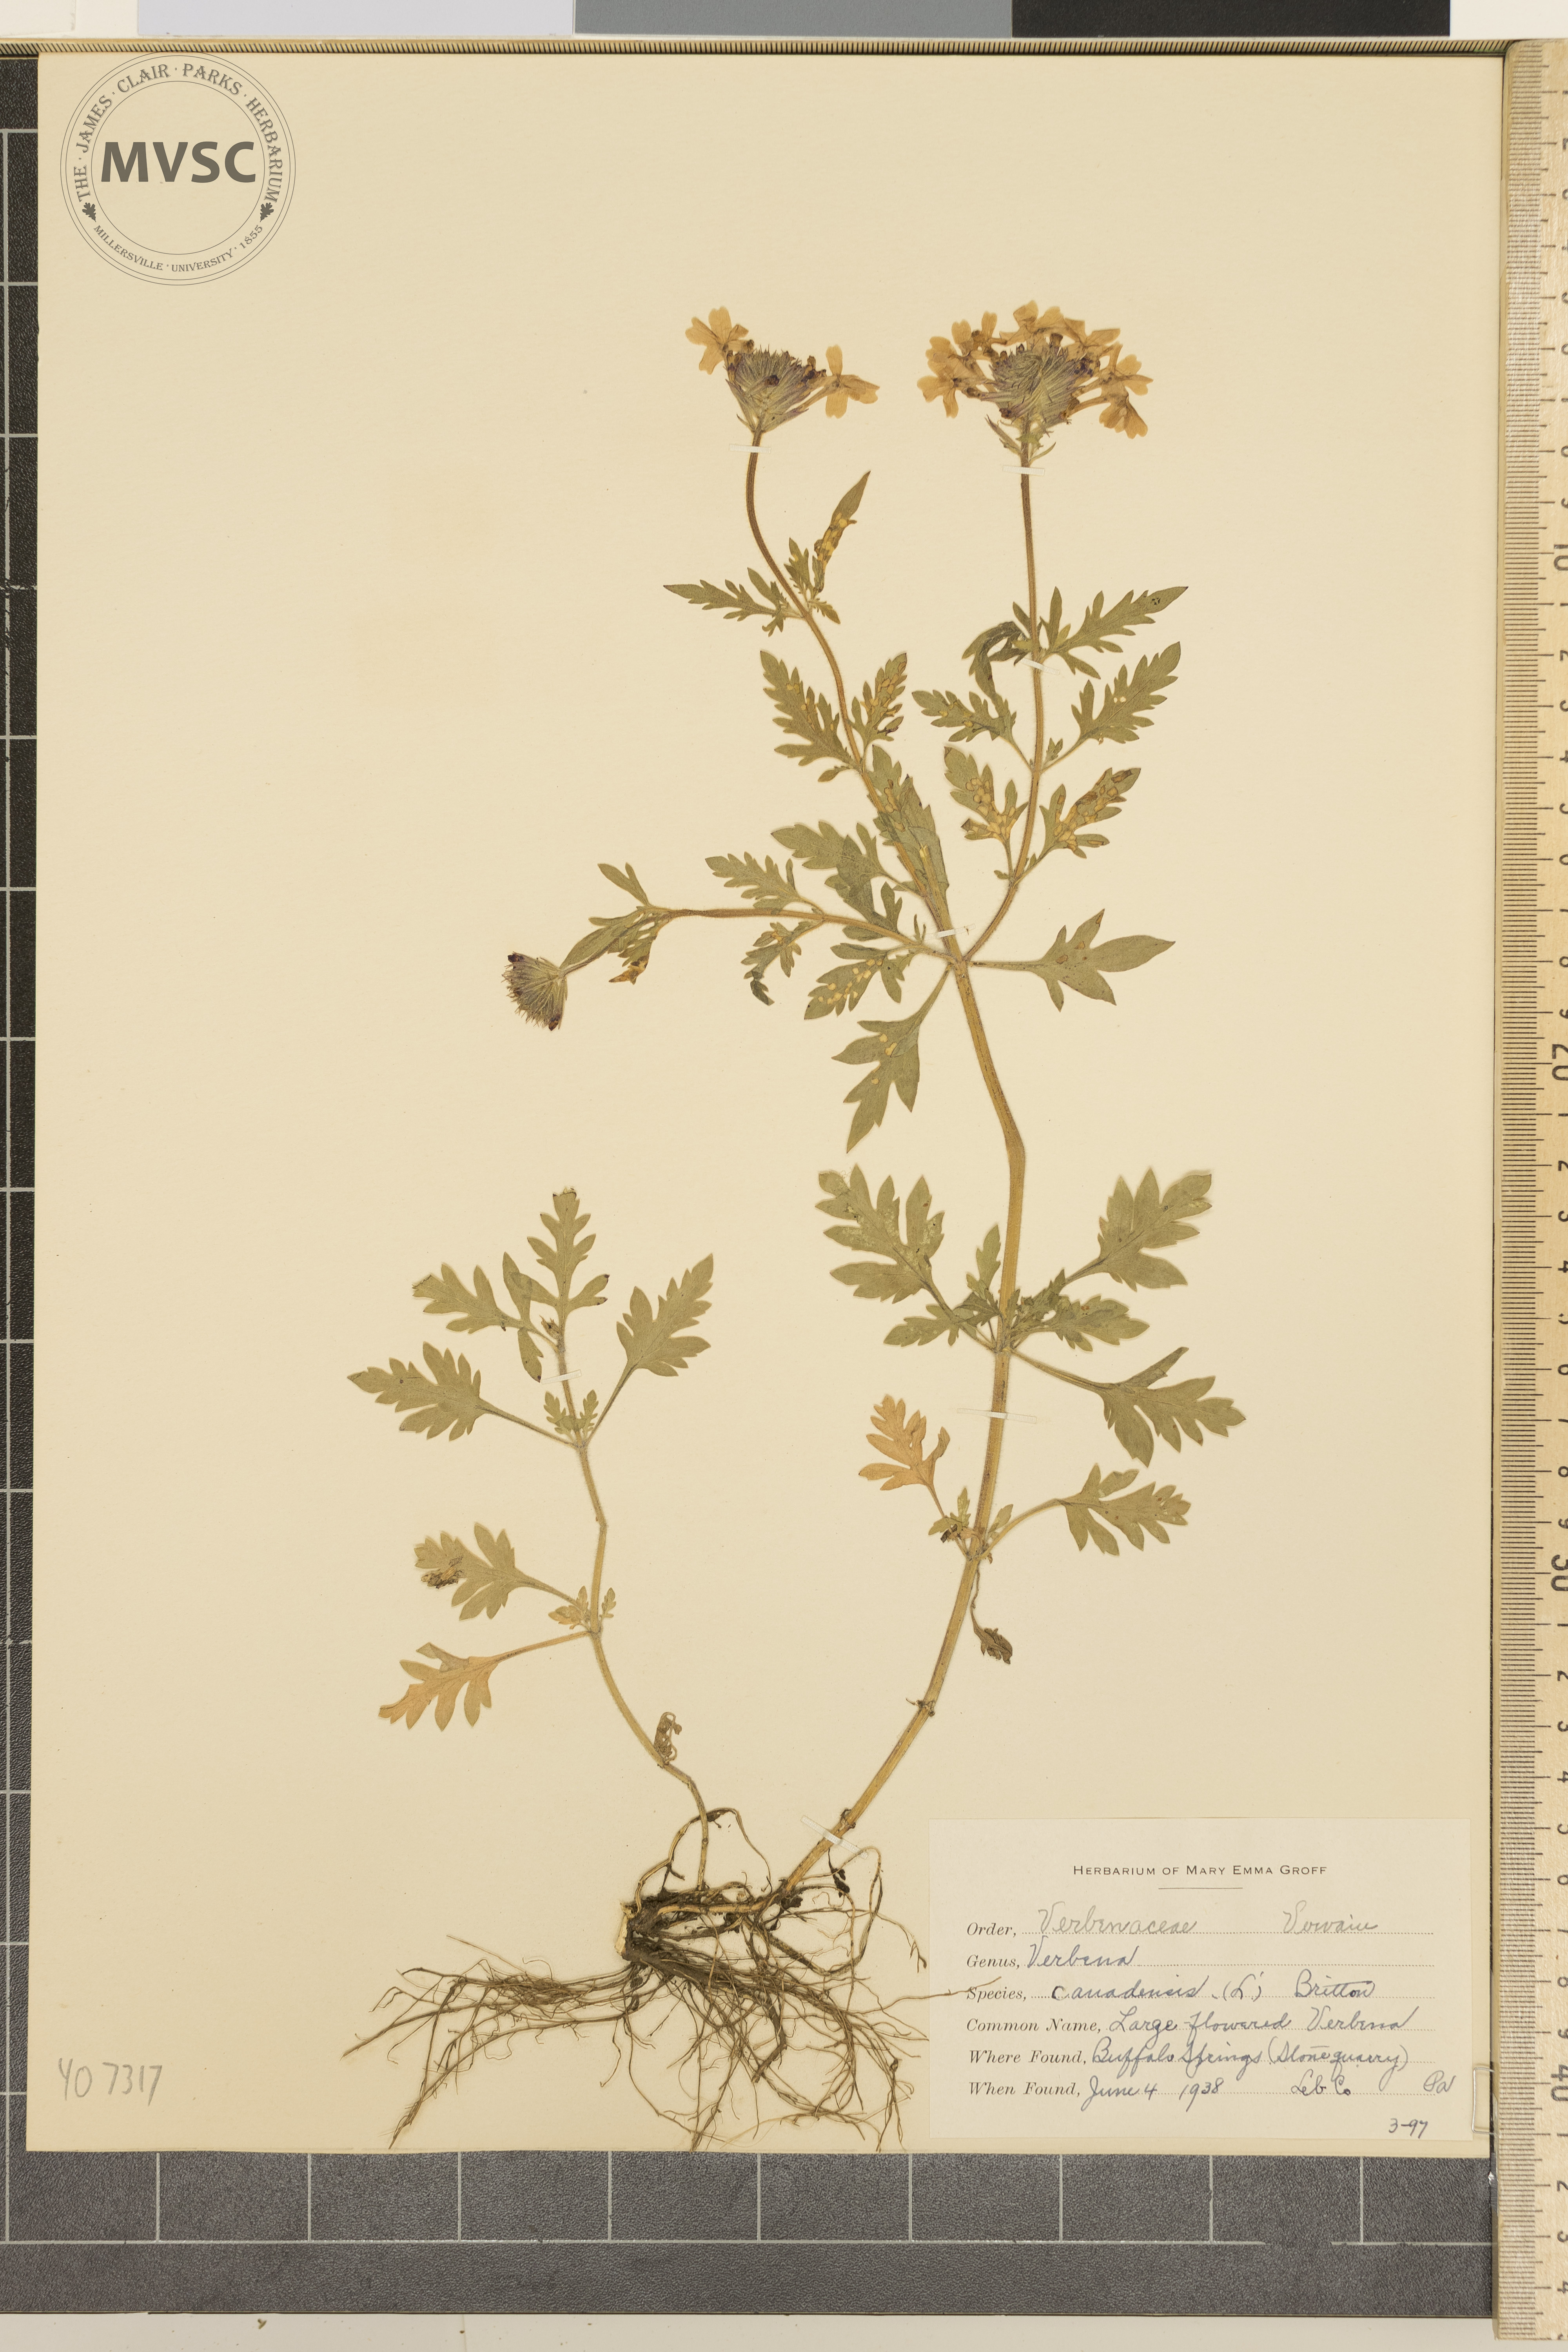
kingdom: Plantae
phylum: Tracheophyta
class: Magnoliopsida
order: Lamiales
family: Verbenaceae
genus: Verbena
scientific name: Verbena canadensis
